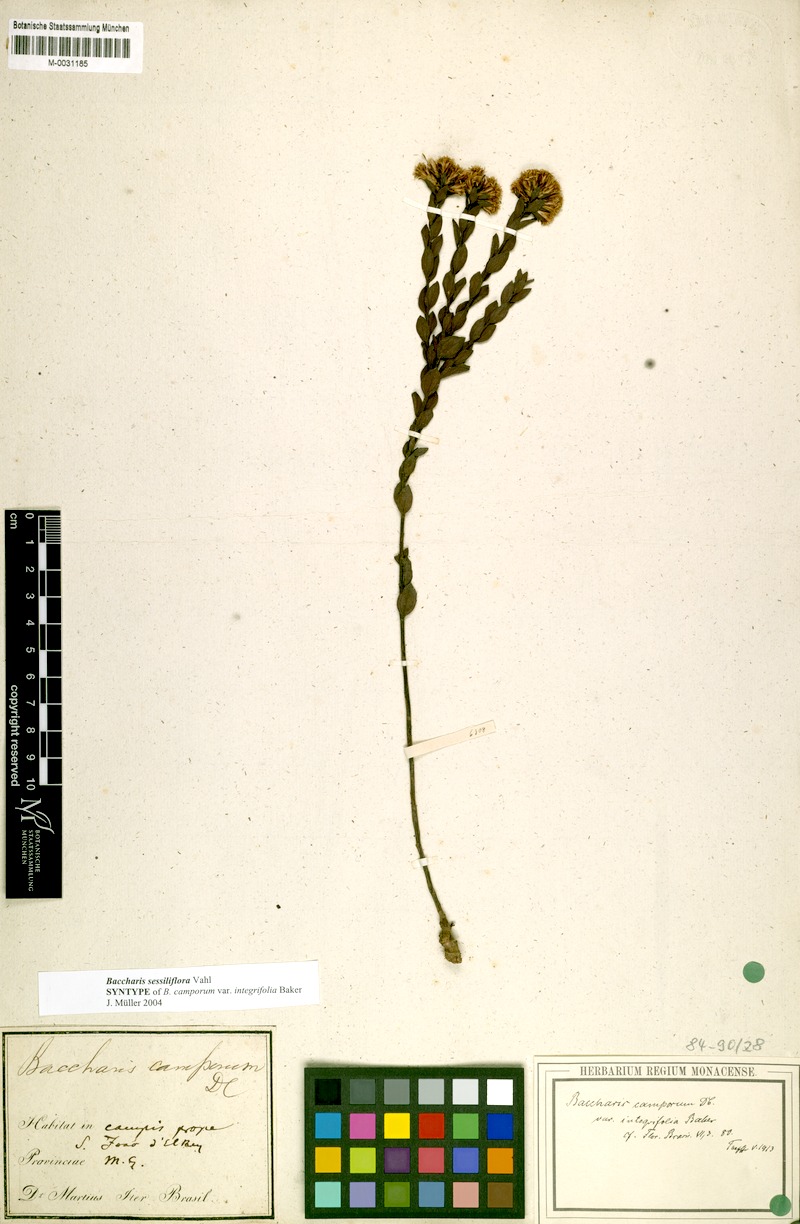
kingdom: Plantae
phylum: Tracheophyta
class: Magnoliopsida
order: Asterales
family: Asteraceae
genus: Baccharis
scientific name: Baccharis camporum
